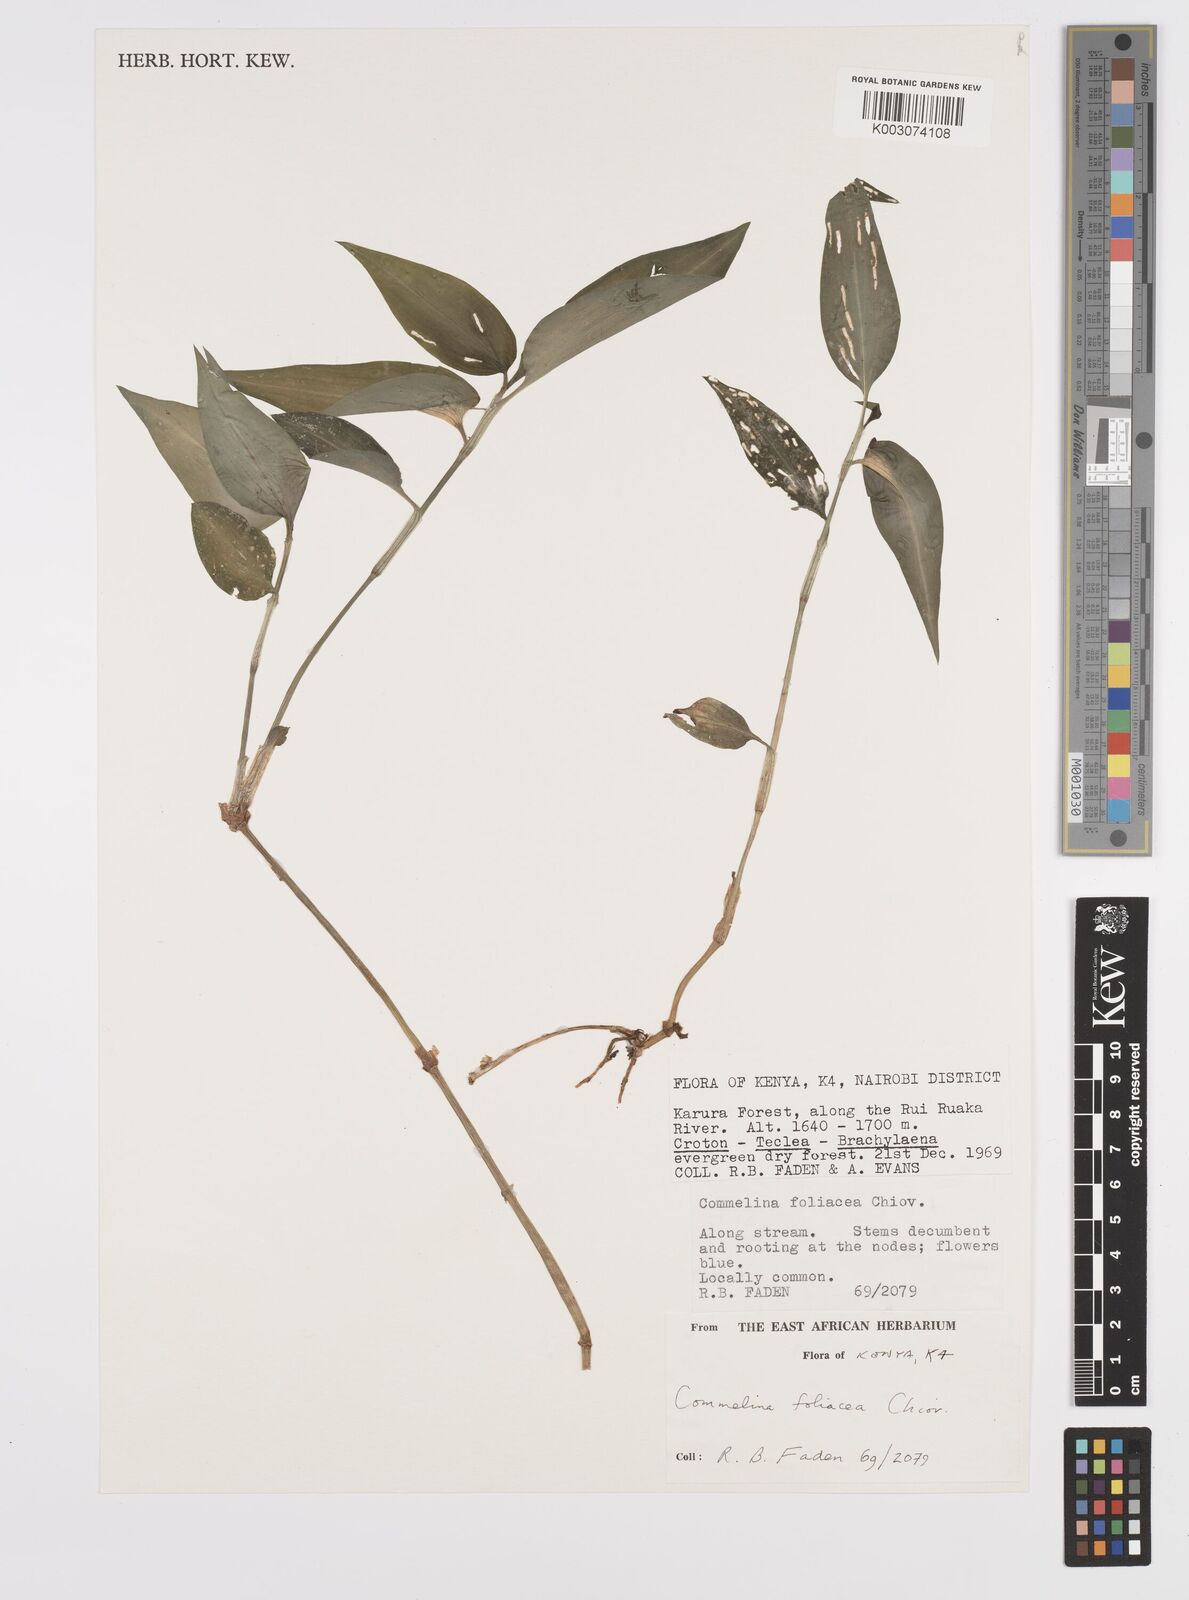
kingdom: Plantae
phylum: Tracheophyta
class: Liliopsida
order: Commelinales
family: Commelinaceae
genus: Commelina
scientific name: Commelina foliacea
